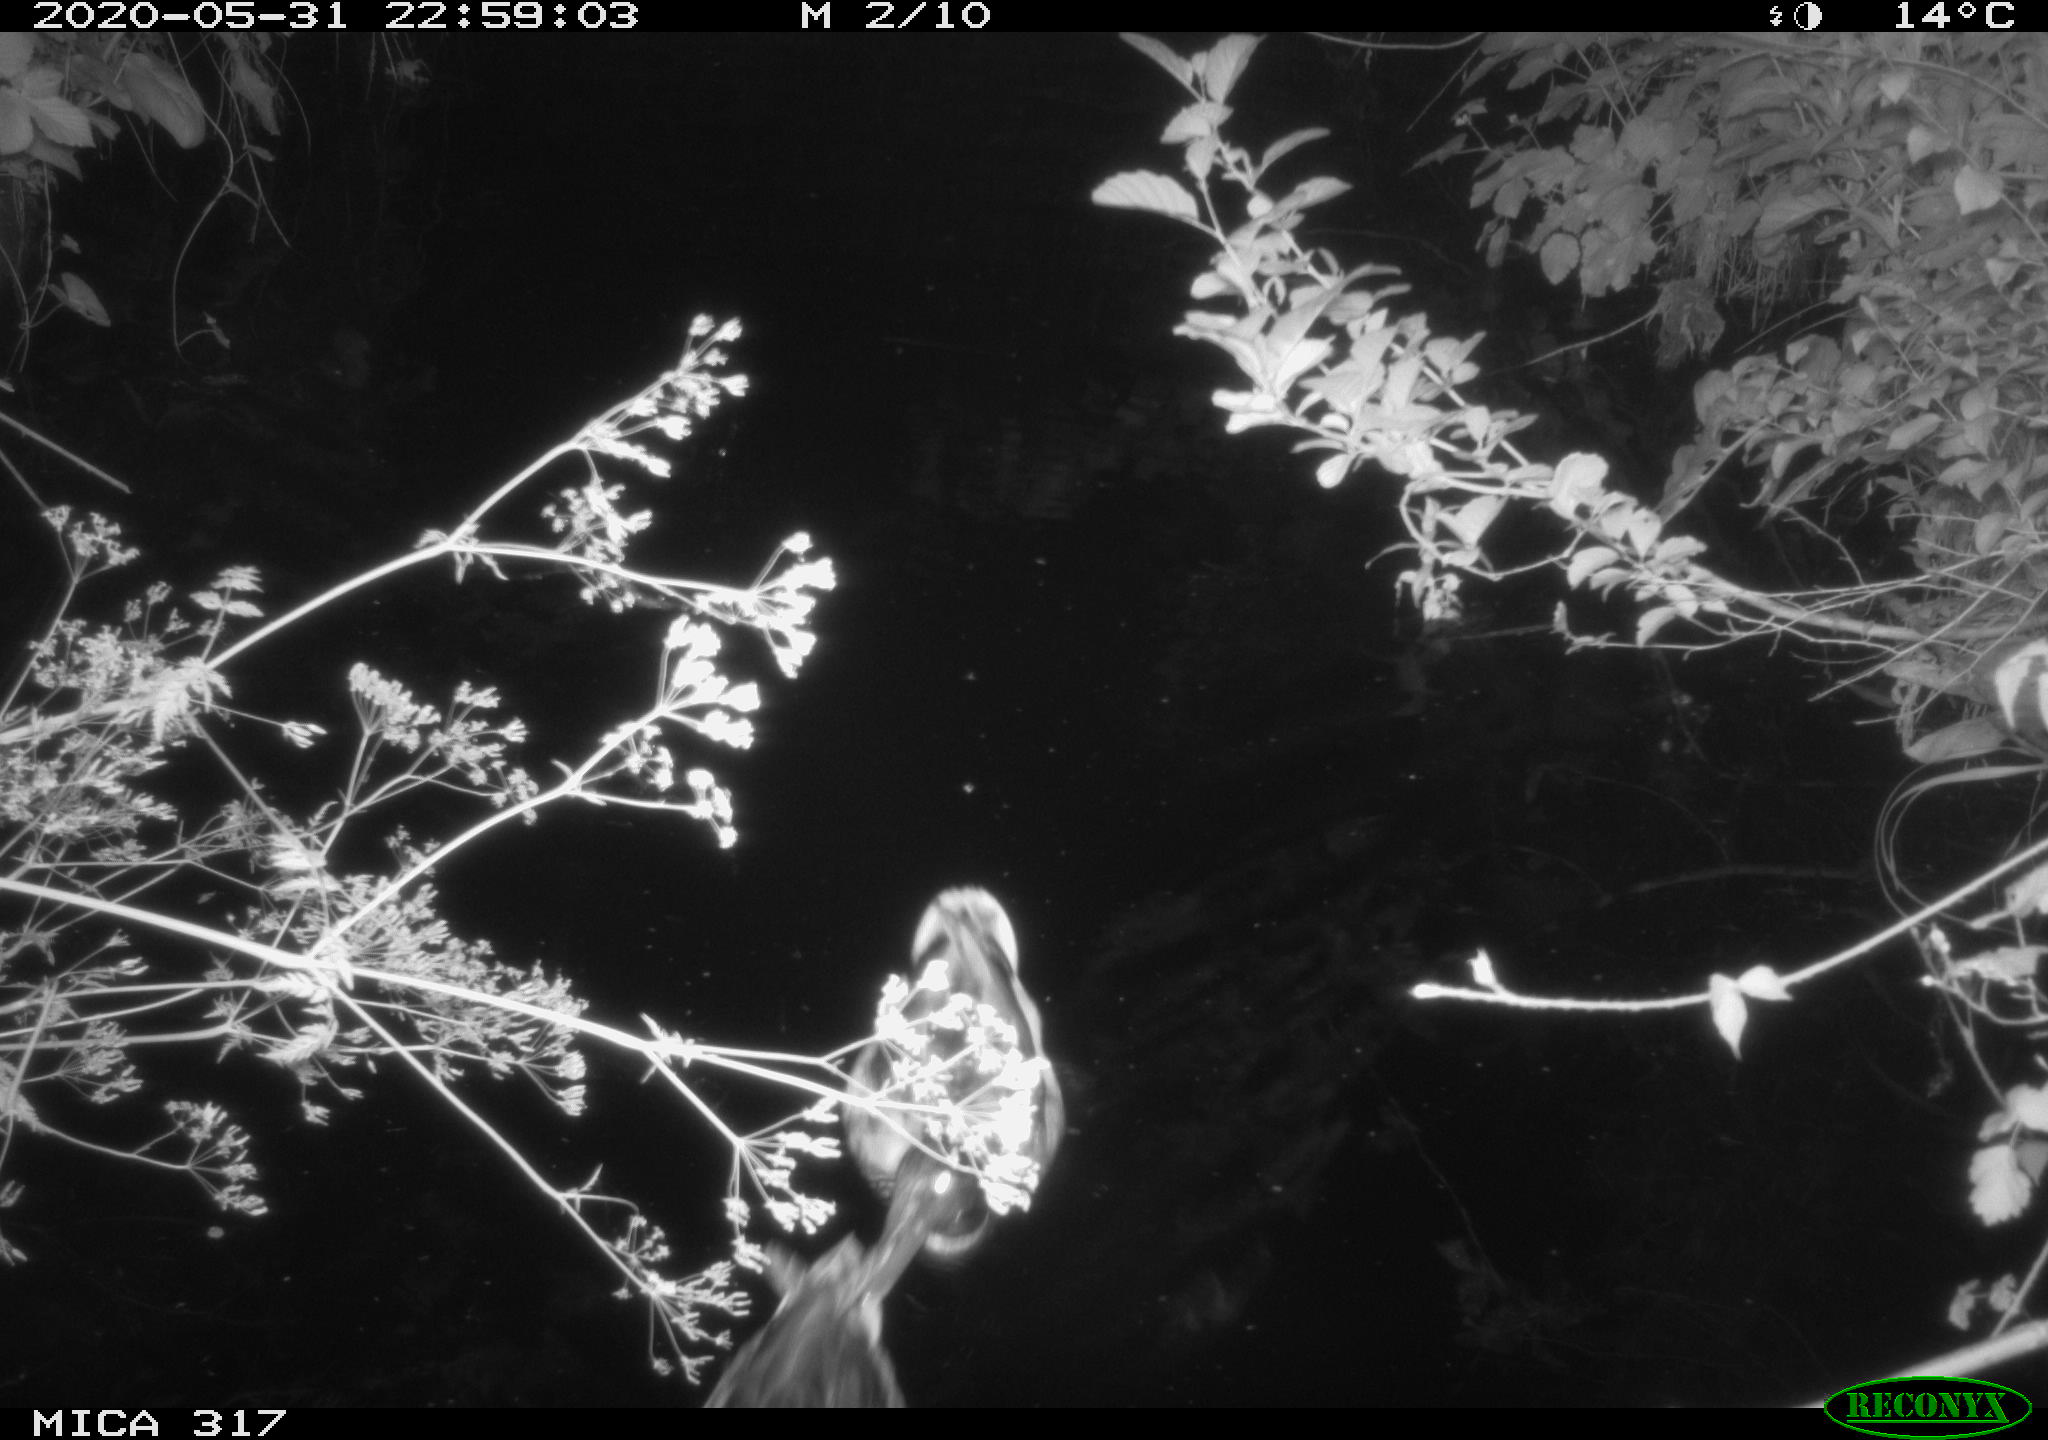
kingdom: Animalia
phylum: Chordata
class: Aves
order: Anseriformes
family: Anatidae
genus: Anas
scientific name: Anas platyrhynchos
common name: Mallard
